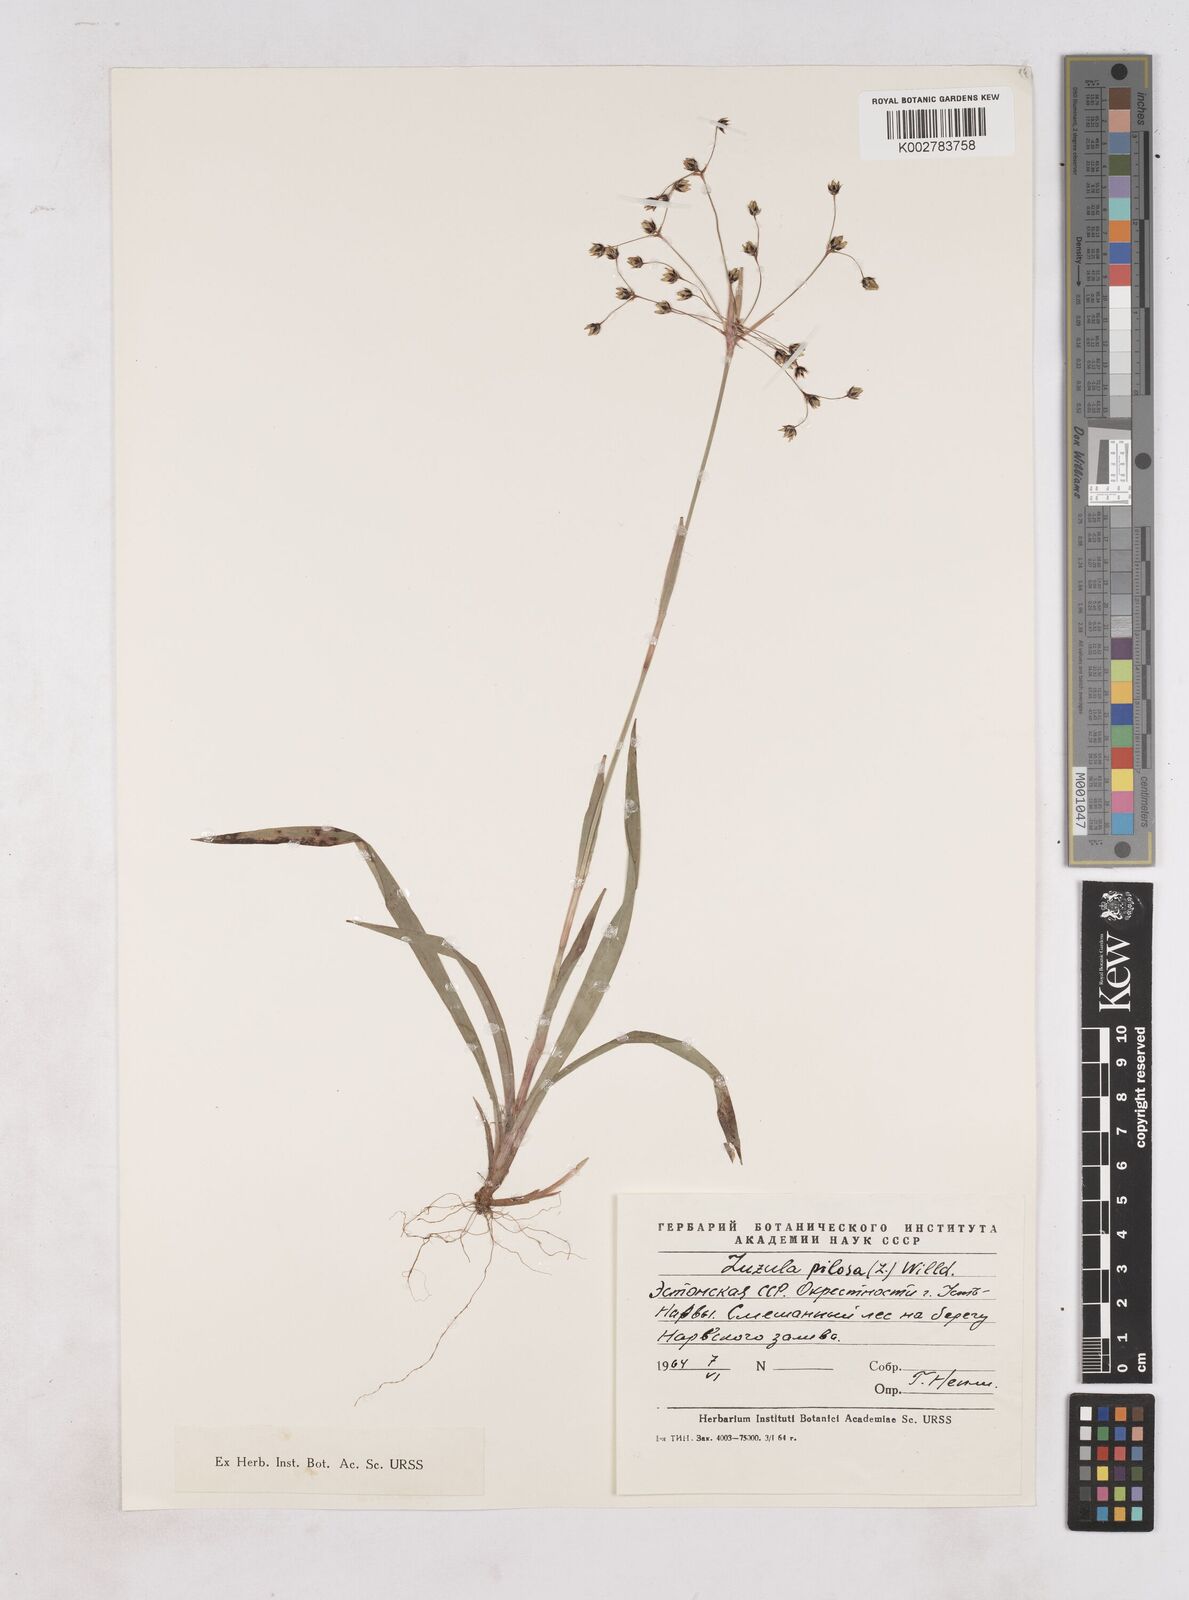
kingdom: Plantae
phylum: Tracheophyta
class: Liliopsida
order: Poales
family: Juncaceae
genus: Luzula
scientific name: Luzula pilosa
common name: Hairy wood-rush
